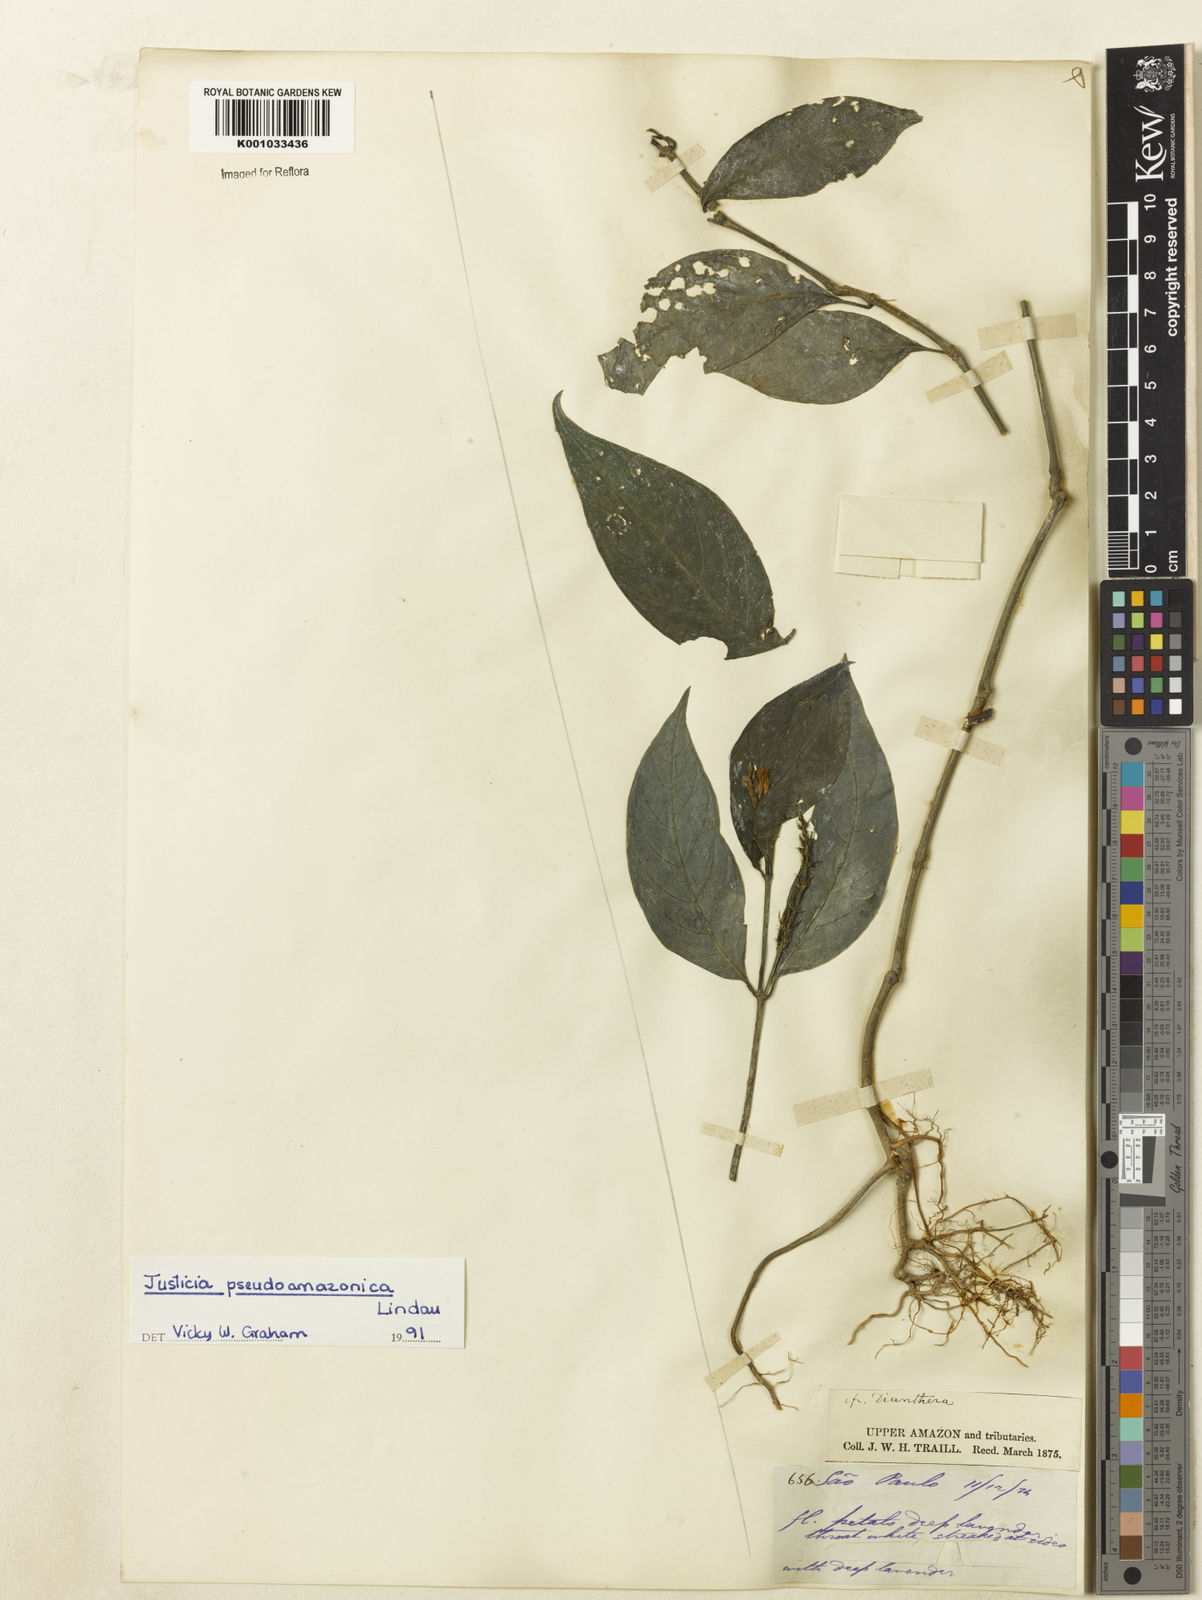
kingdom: Plantae
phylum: Tracheophyta
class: Magnoliopsida
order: Lamiales
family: Acanthaceae
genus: Justicia
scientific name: Justicia pseudoamazonica
